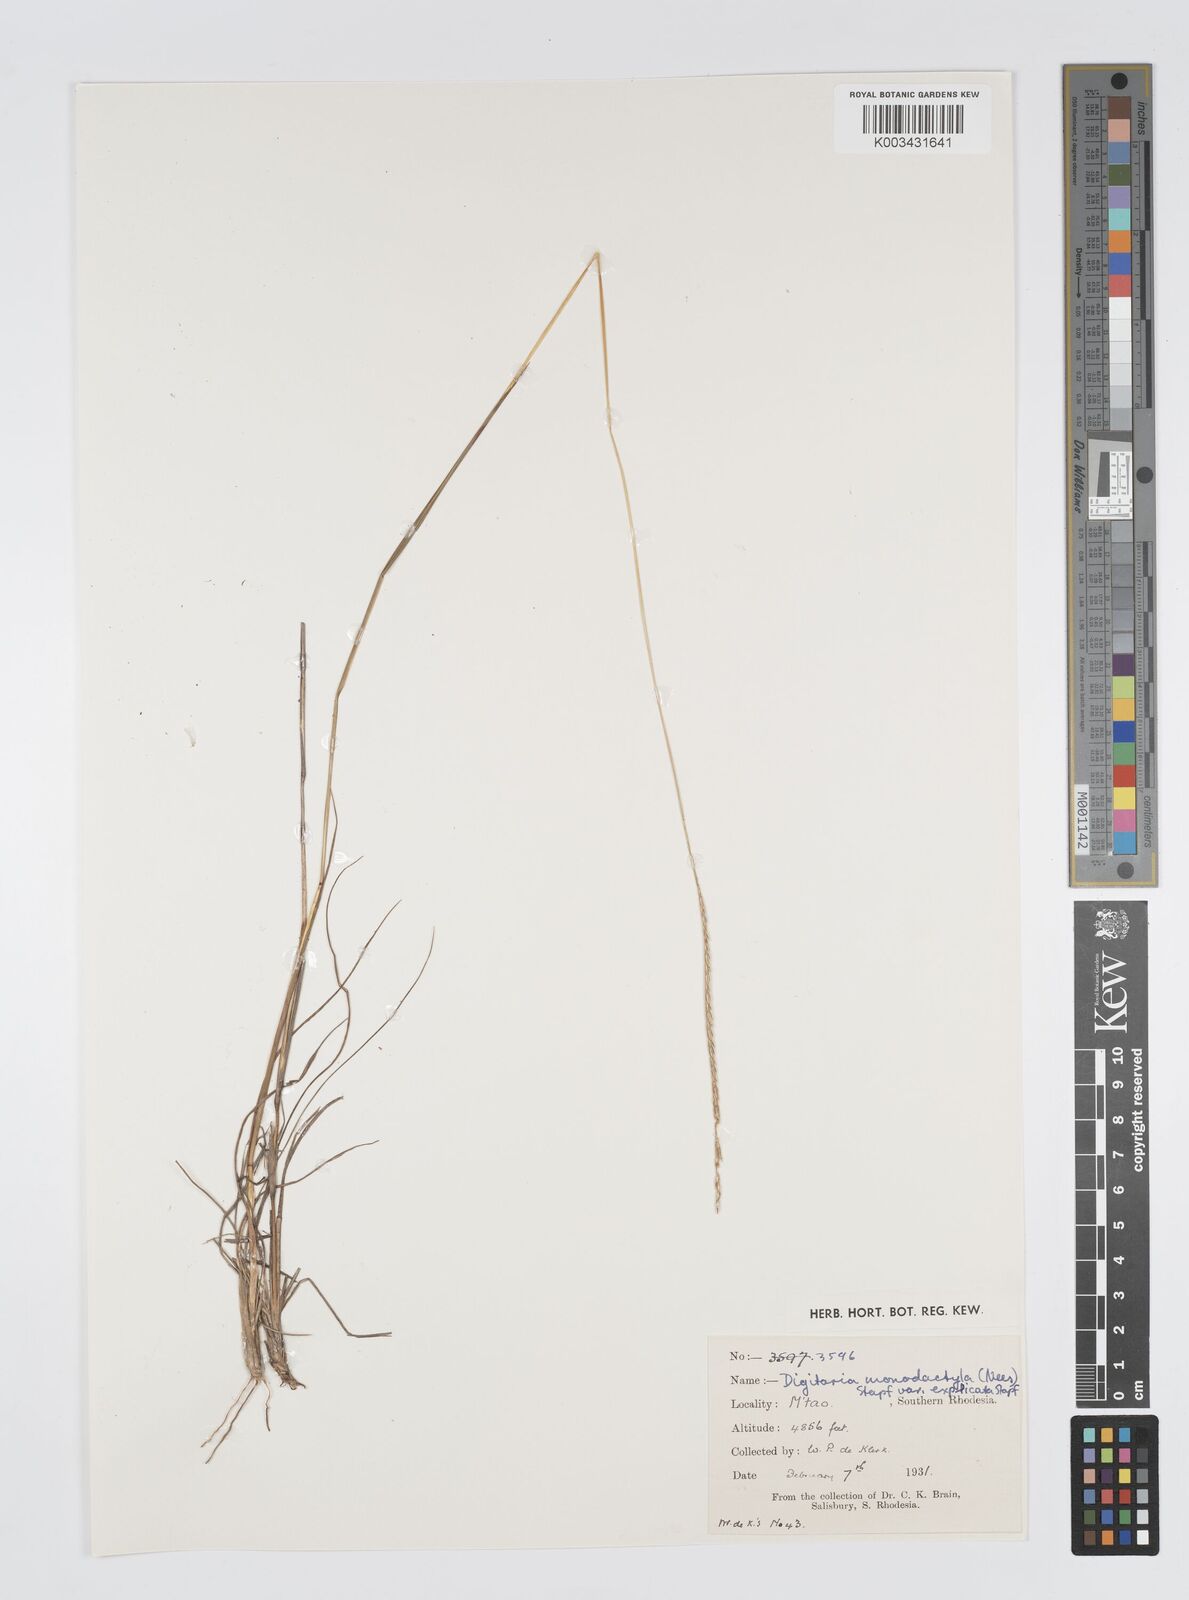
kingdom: Plantae
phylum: Tracheophyta
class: Liliopsida
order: Poales
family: Poaceae
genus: Digitaria
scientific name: Digitaria monodactyla
